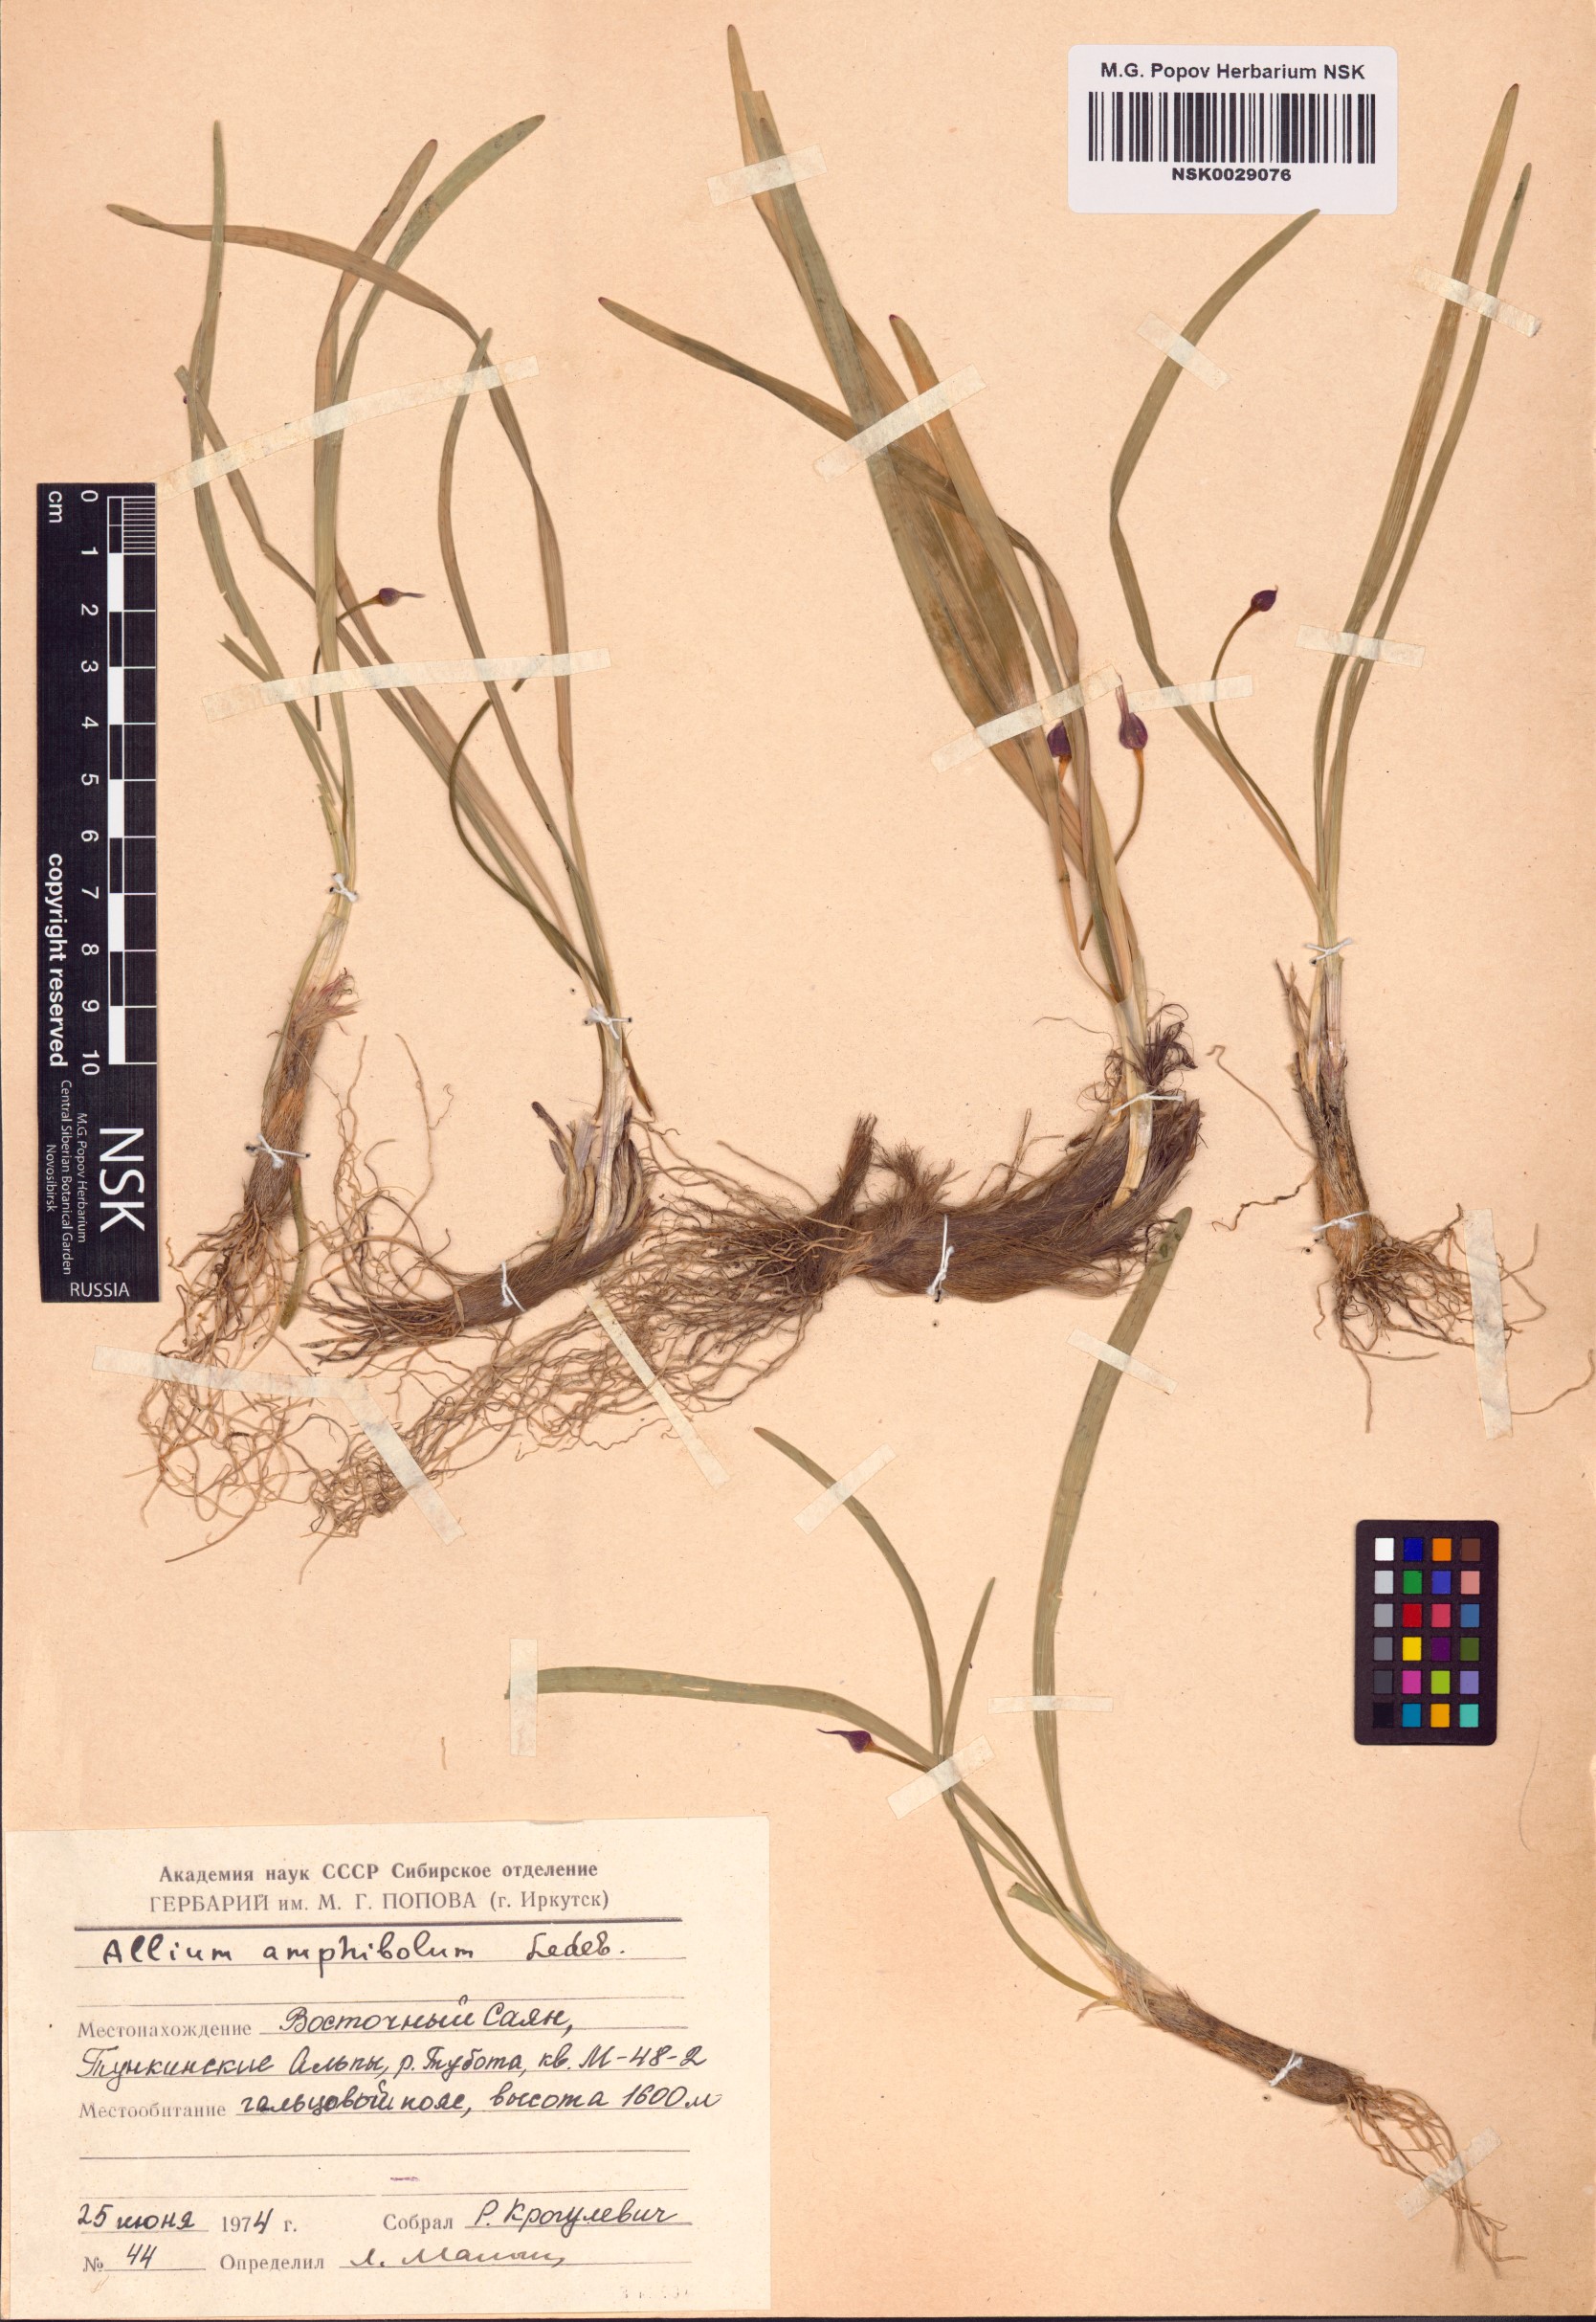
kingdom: Plantae
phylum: Tracheophyta
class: Liliopsida
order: Asparagales
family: Amaryllidaceae
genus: Allium
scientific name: Allium amphibolum
